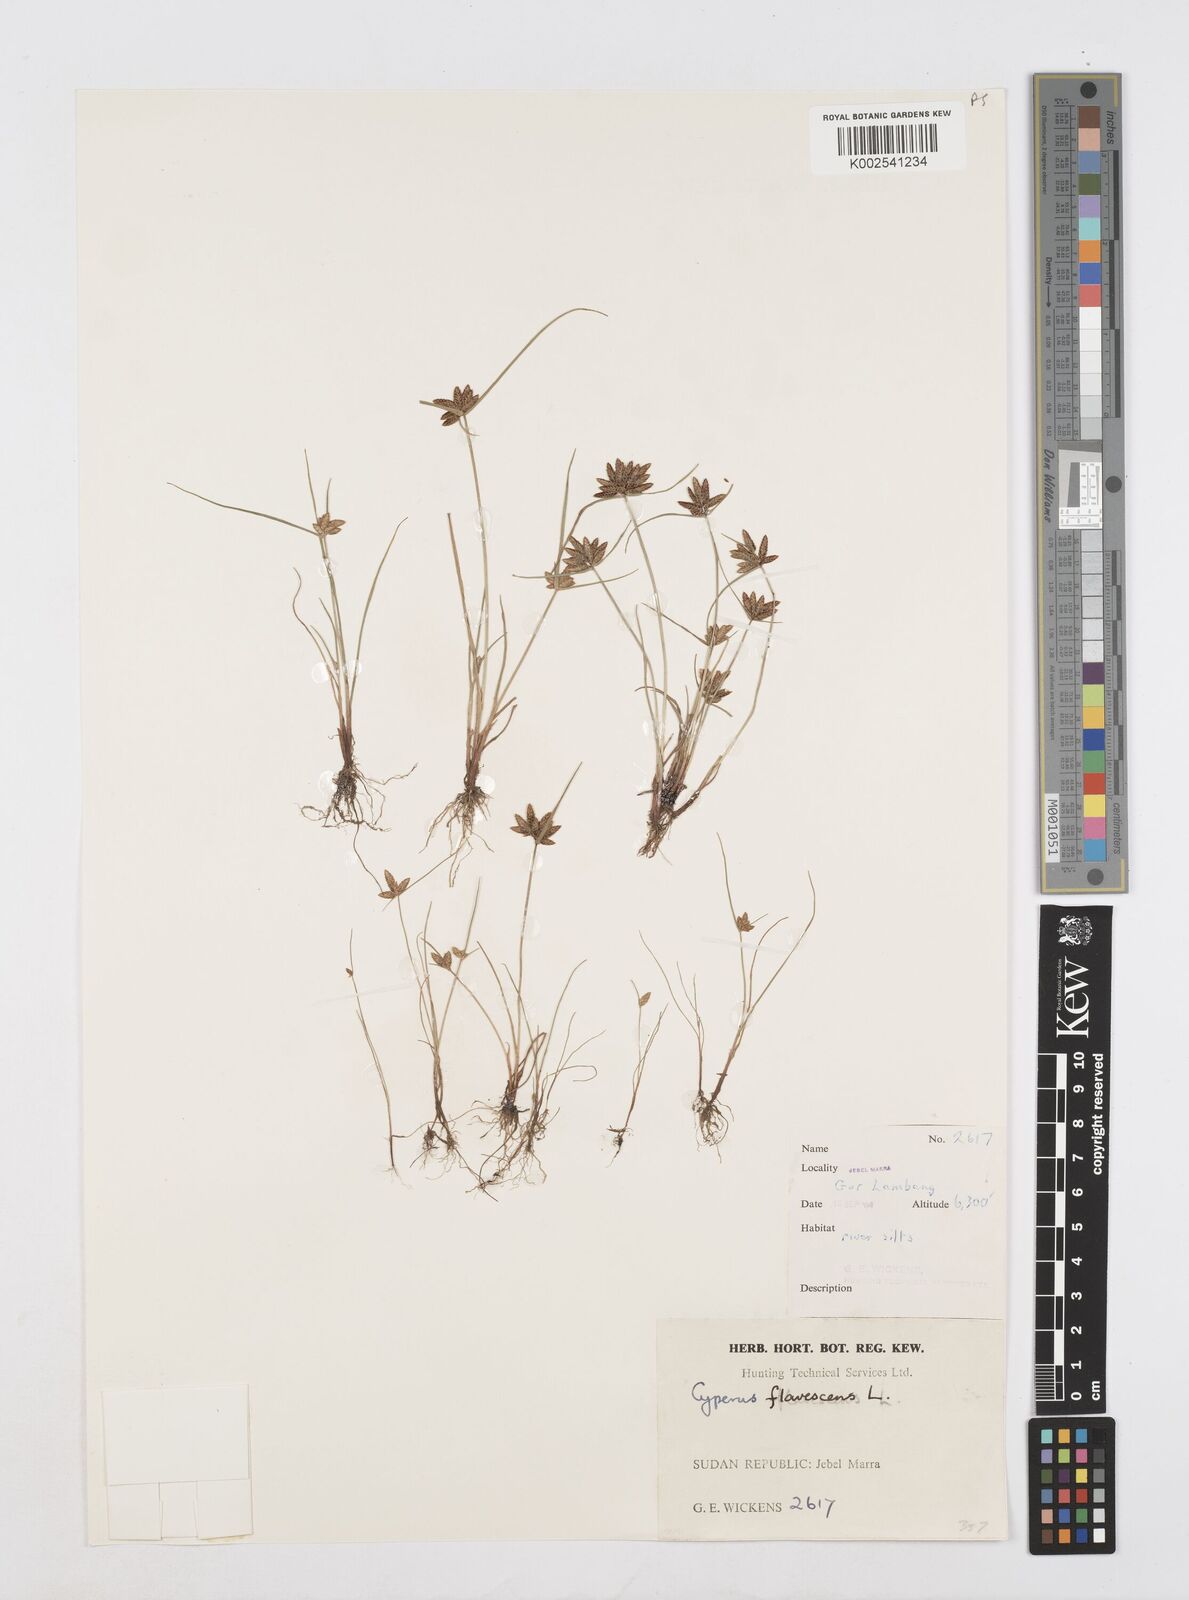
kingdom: Plantae
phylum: Tracheophyta
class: Liliopsida
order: Poales
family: Cyperaceae
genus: Cyperus
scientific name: Cyperus flavescens
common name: Yellow galingale
